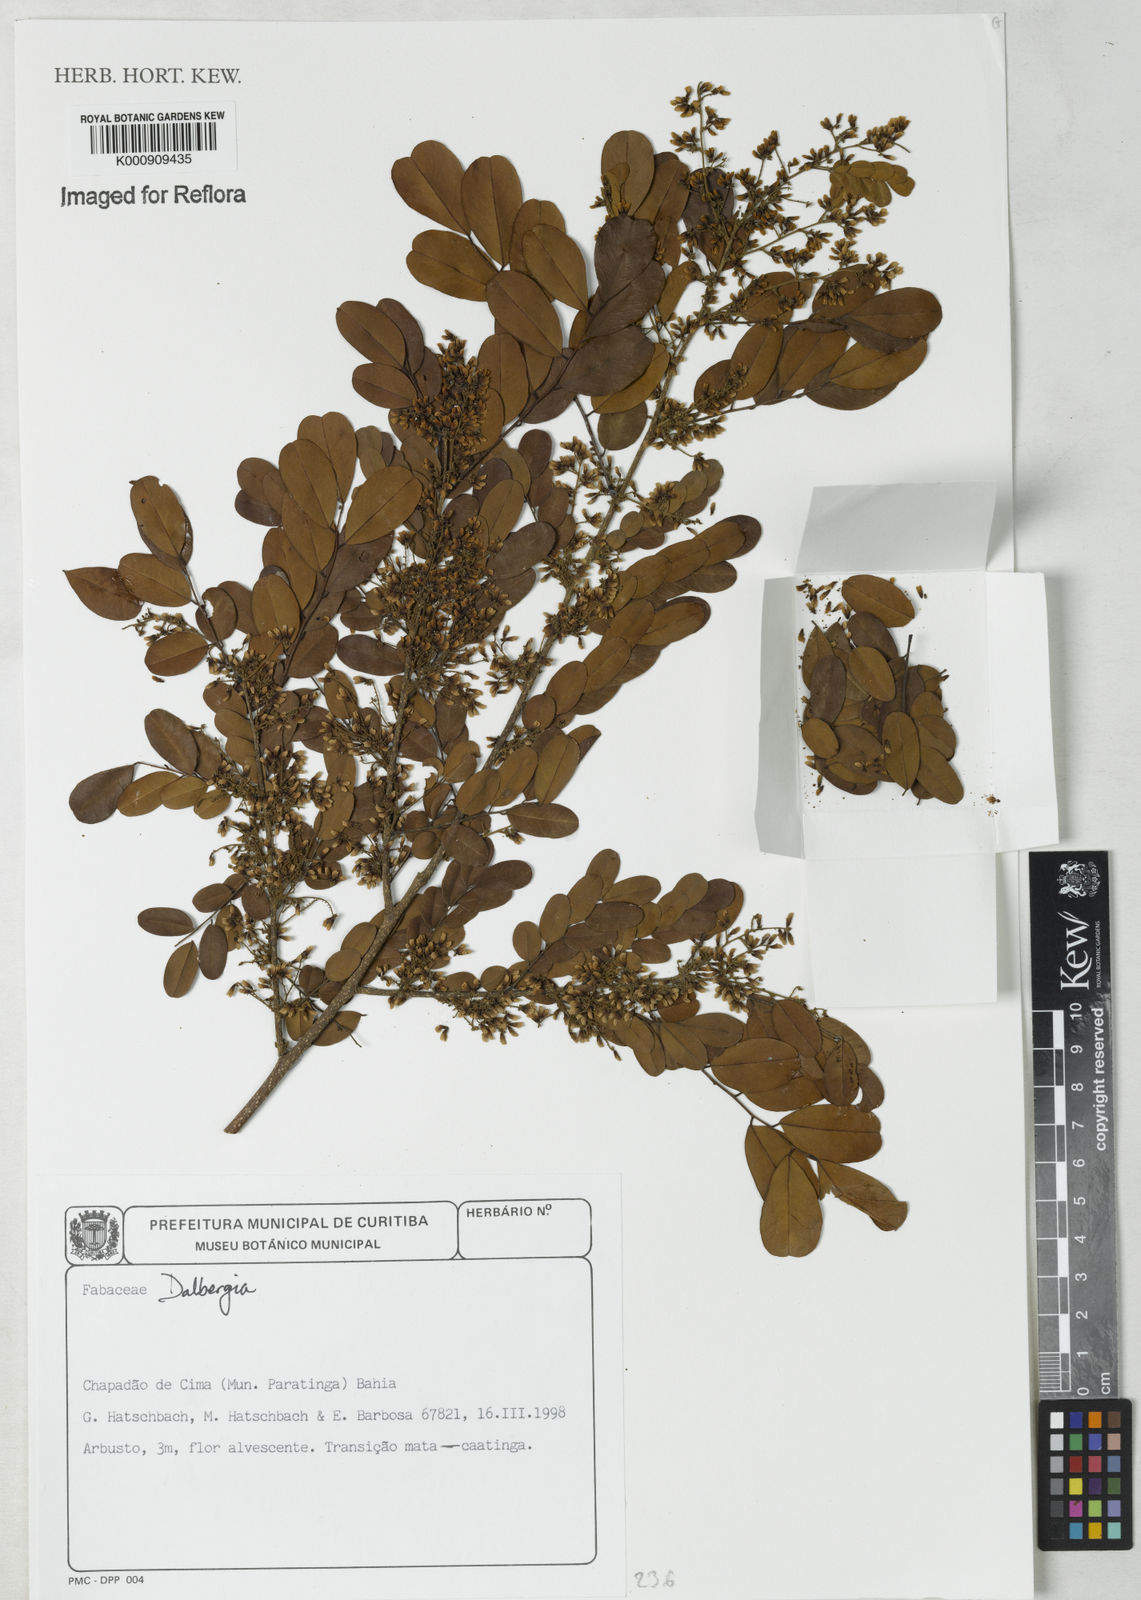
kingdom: Plantae
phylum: Tracheophyta
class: Magnoliopsida
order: Fabales
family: Fabaceae
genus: Dalbergia
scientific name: Dalbergia
